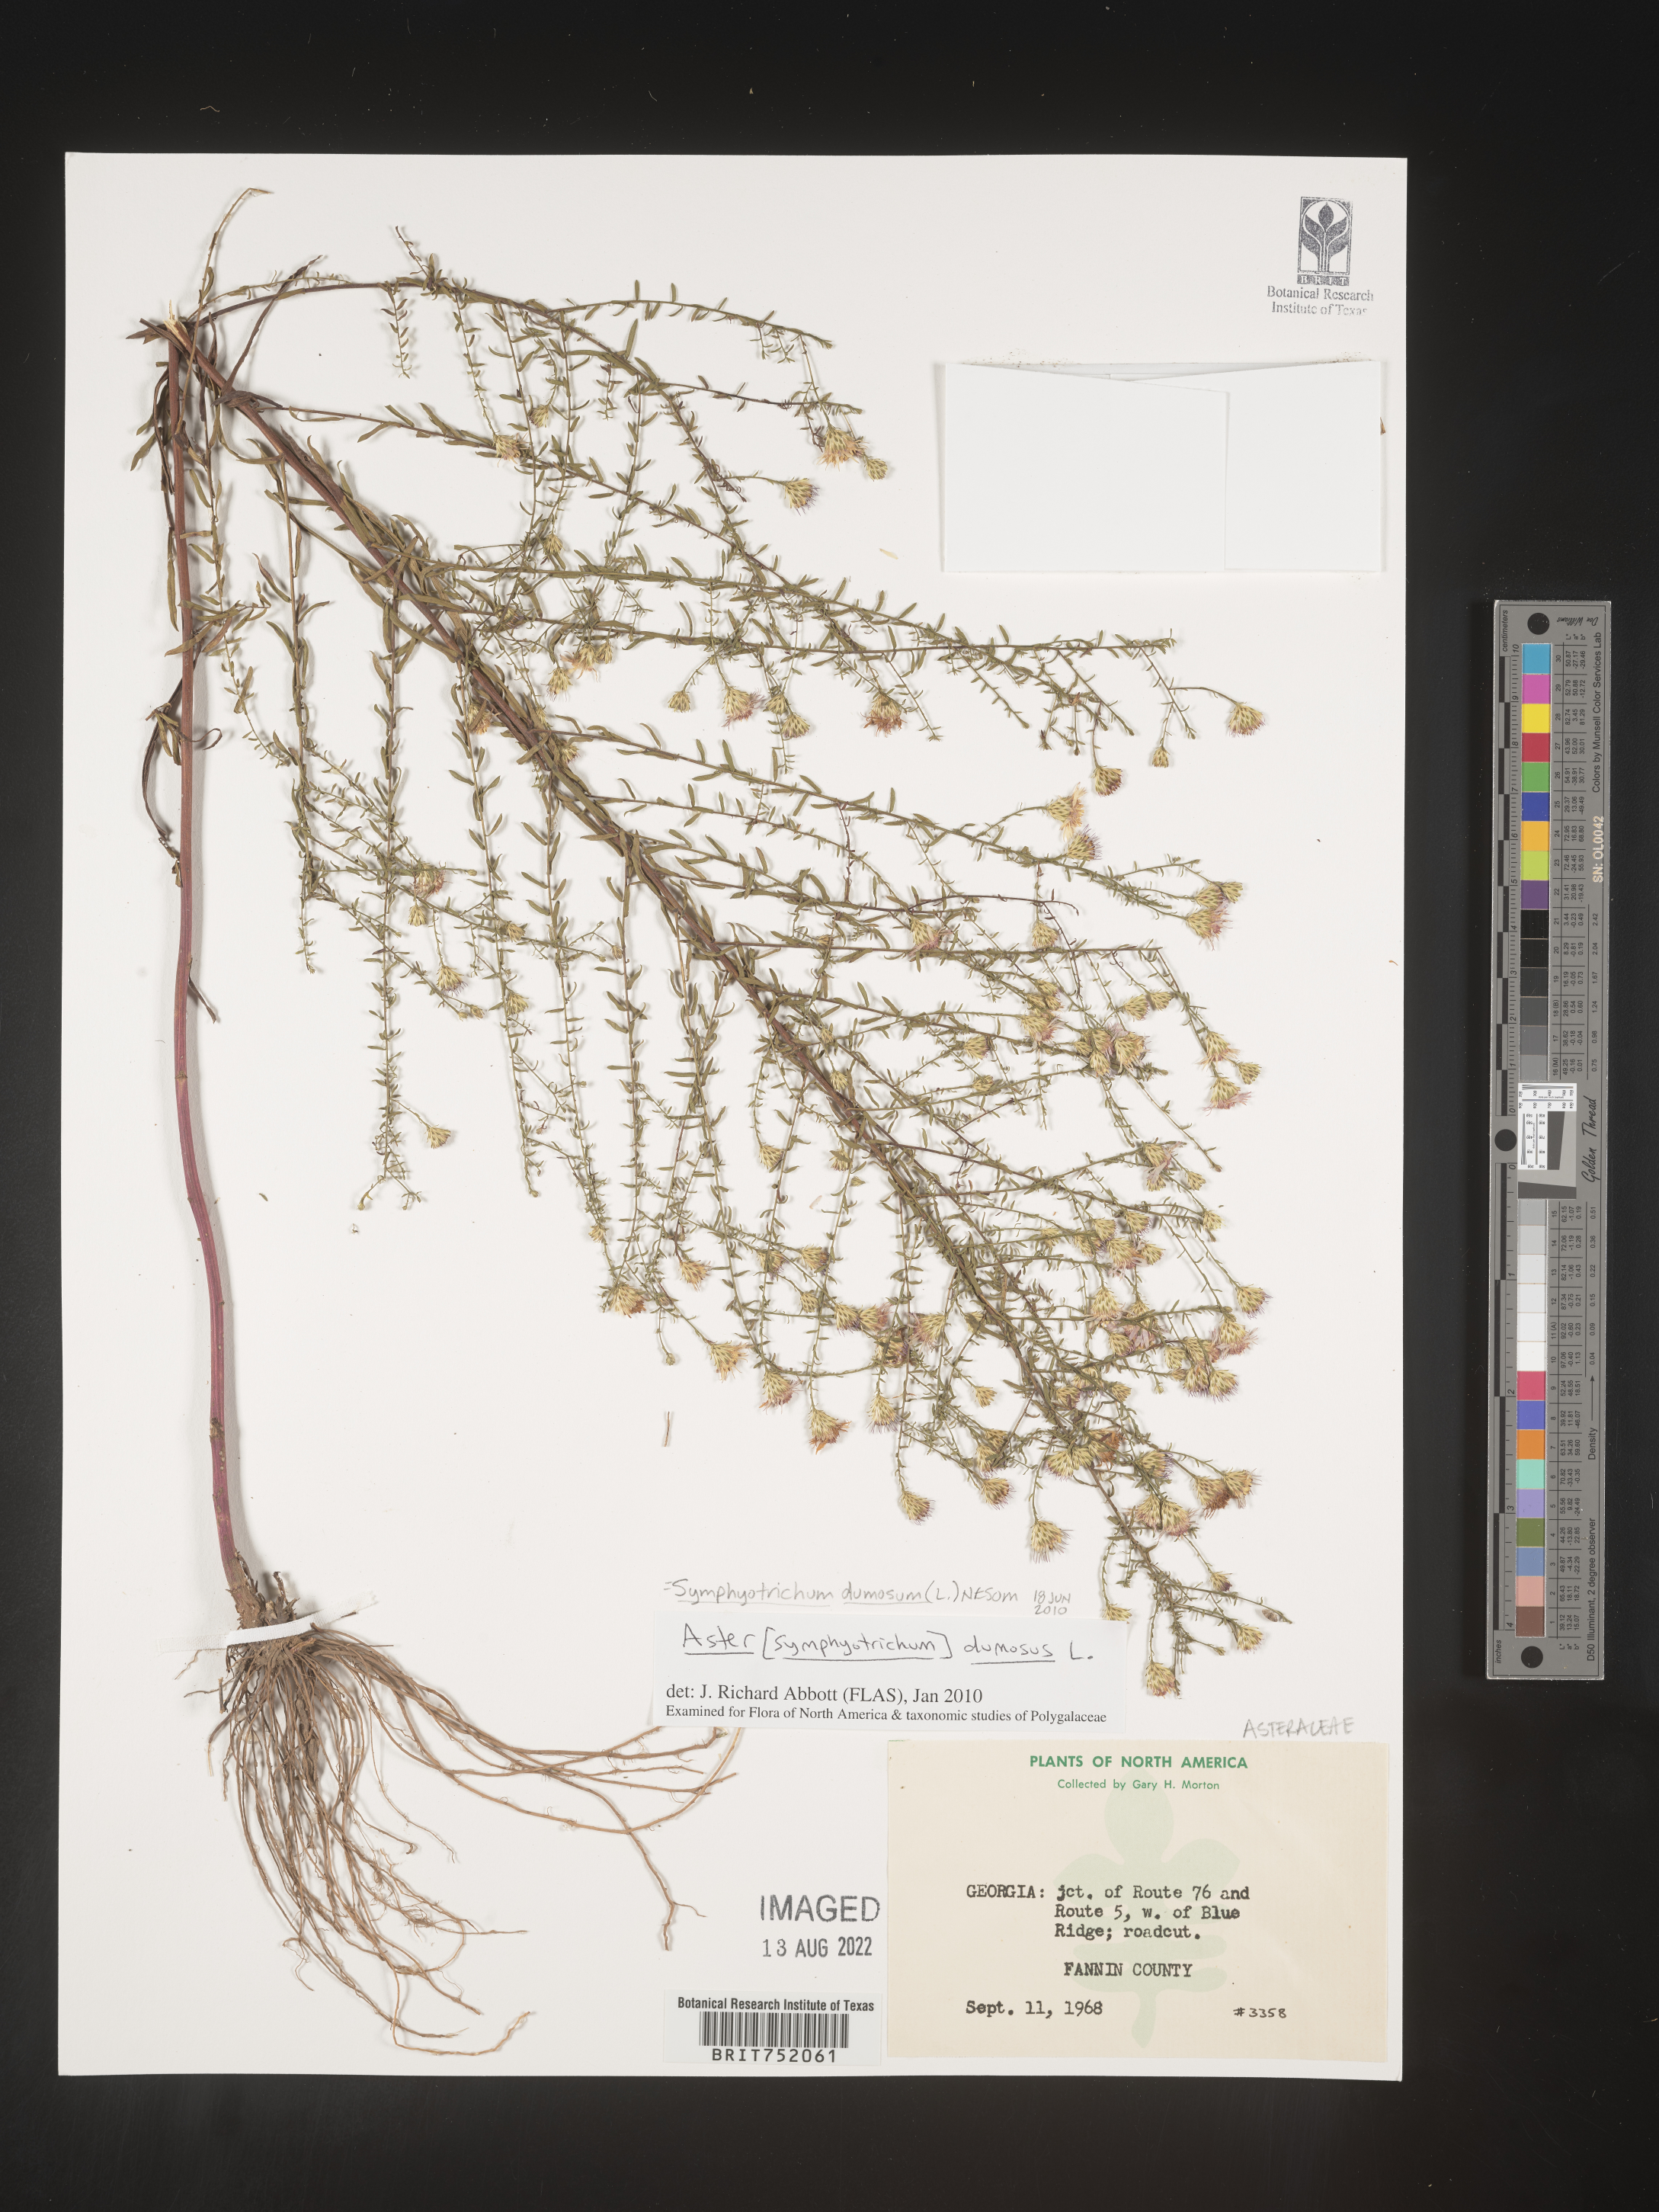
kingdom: Plantae
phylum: Tracheophyta
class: Magnoliopsida
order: Asterales
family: Asteraceae
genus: Symphyotrichum
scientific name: Symphyotrichum dumosum
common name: Bushy aster
